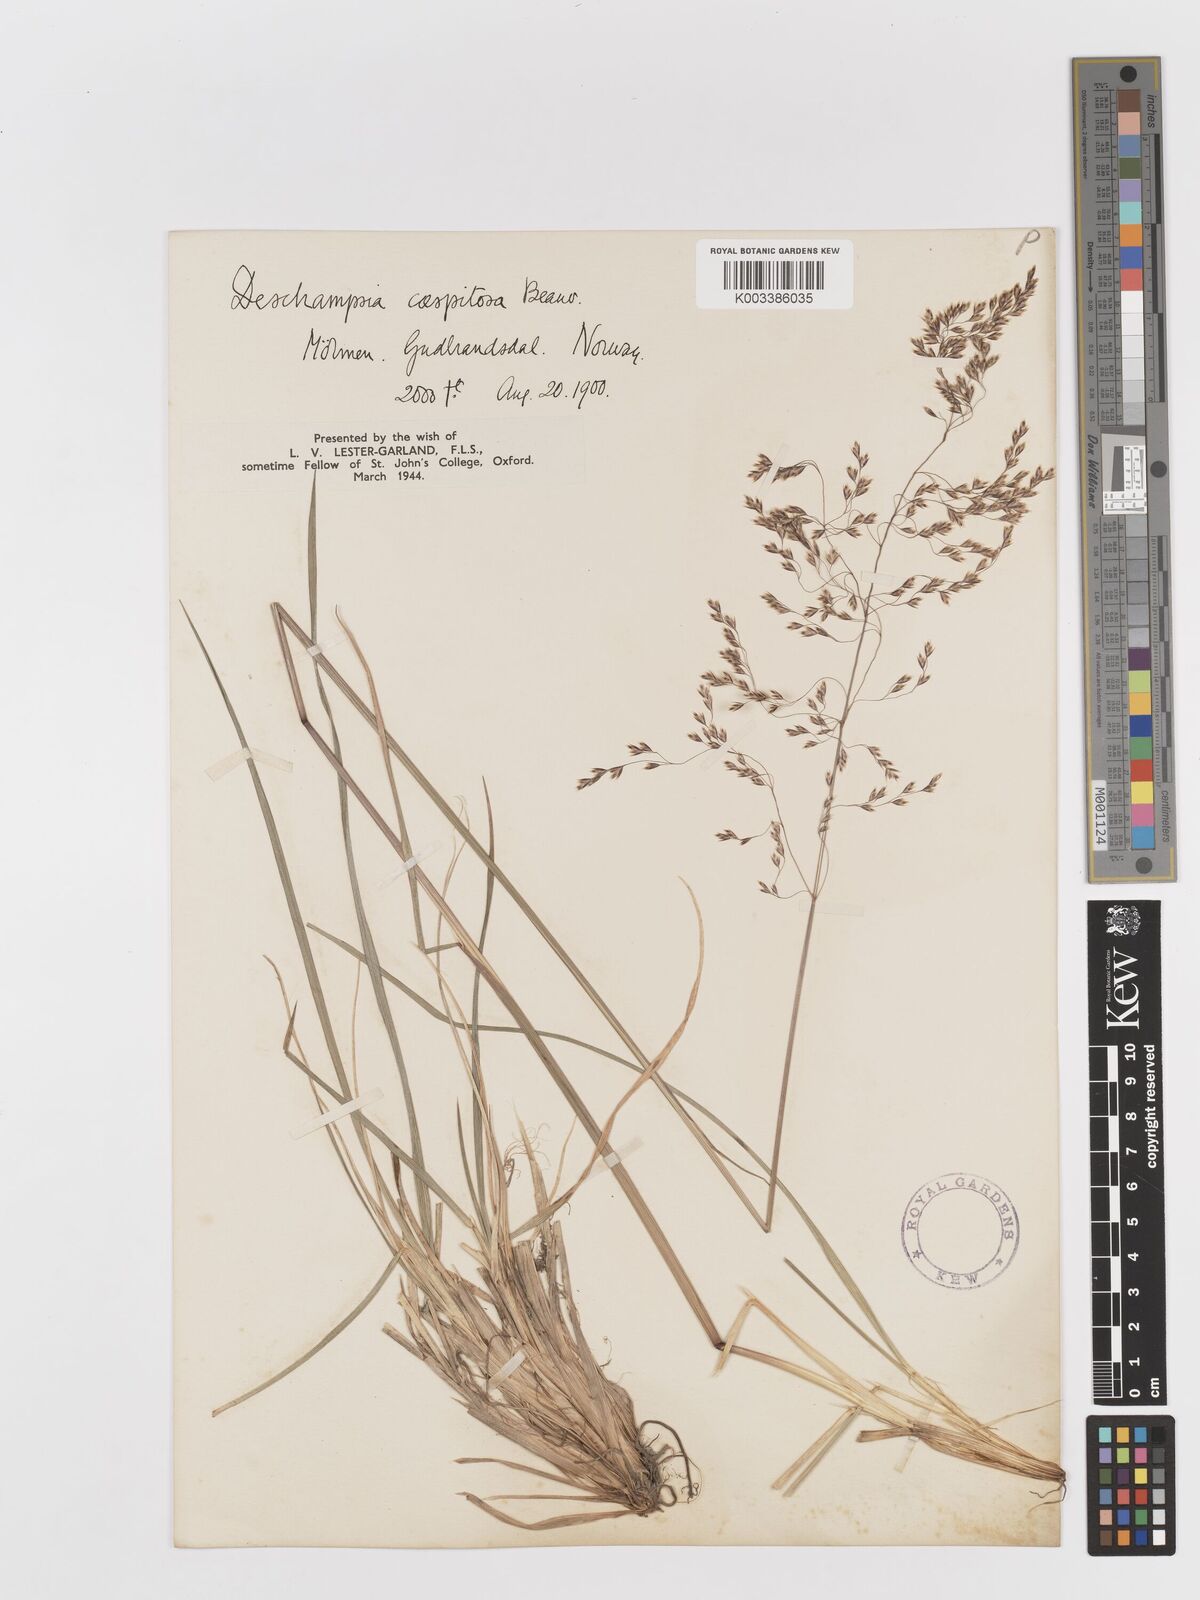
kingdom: Plantae
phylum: Tracheophyta
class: Liliopsida
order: Poales
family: Poaceae
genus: Avenella
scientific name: Avenella flexuosa
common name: Wavy hairgrass
